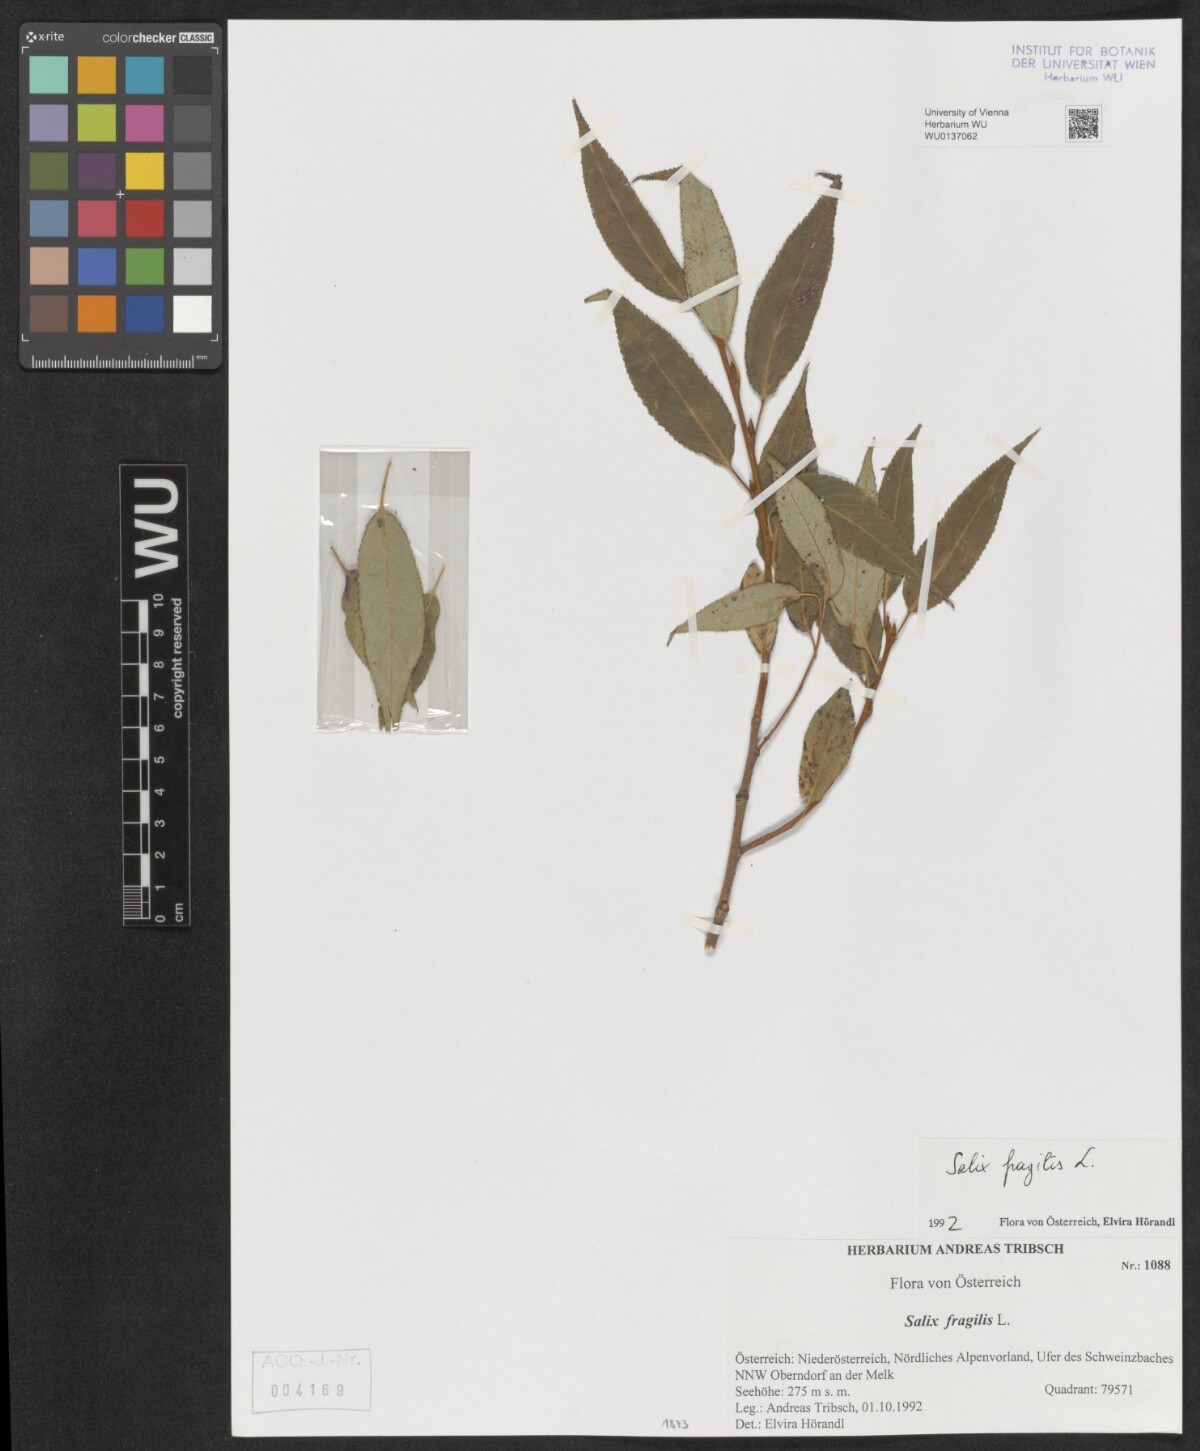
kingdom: Plantae
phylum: Tracheophyta
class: Magnoliopsida
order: Malpighiales
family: Salicaceae
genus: Salix
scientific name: Salix fragilis
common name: Crack willow
